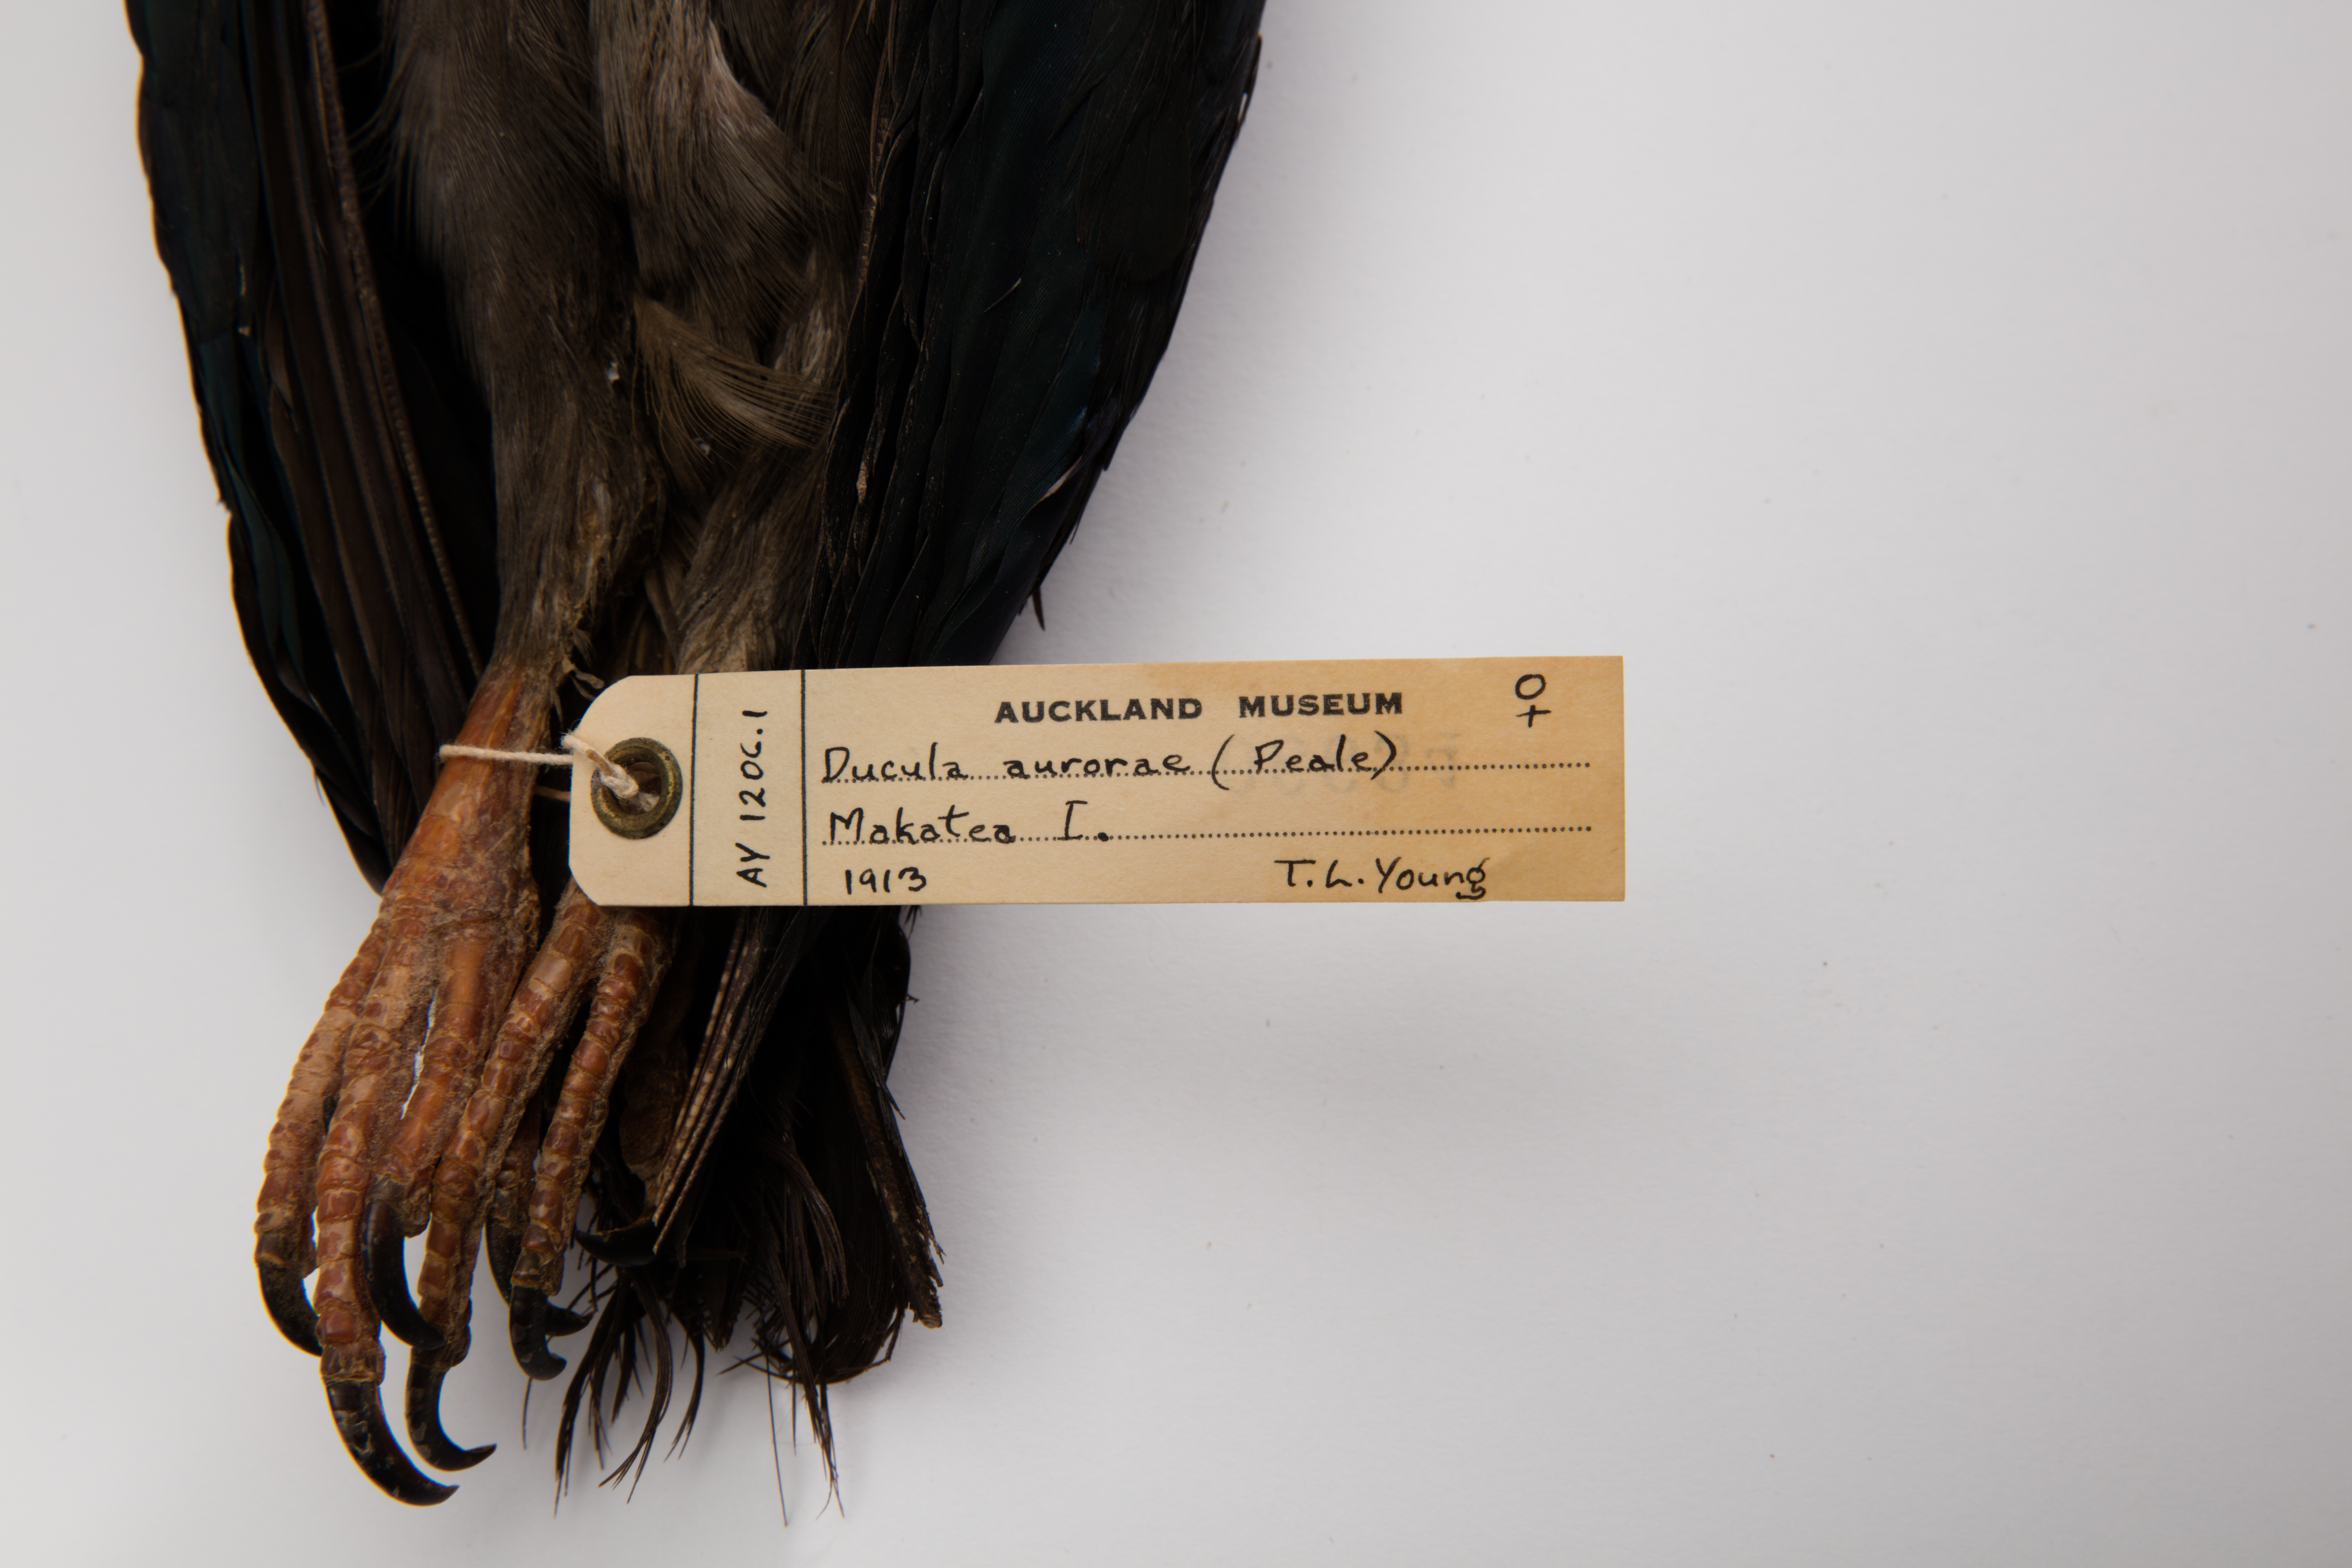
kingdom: Animalia
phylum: Chordata
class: Aves
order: Columbiformes
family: Columbidae
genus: Ducula
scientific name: Ducula aurorae
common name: Polynesian imperial-pigeon
